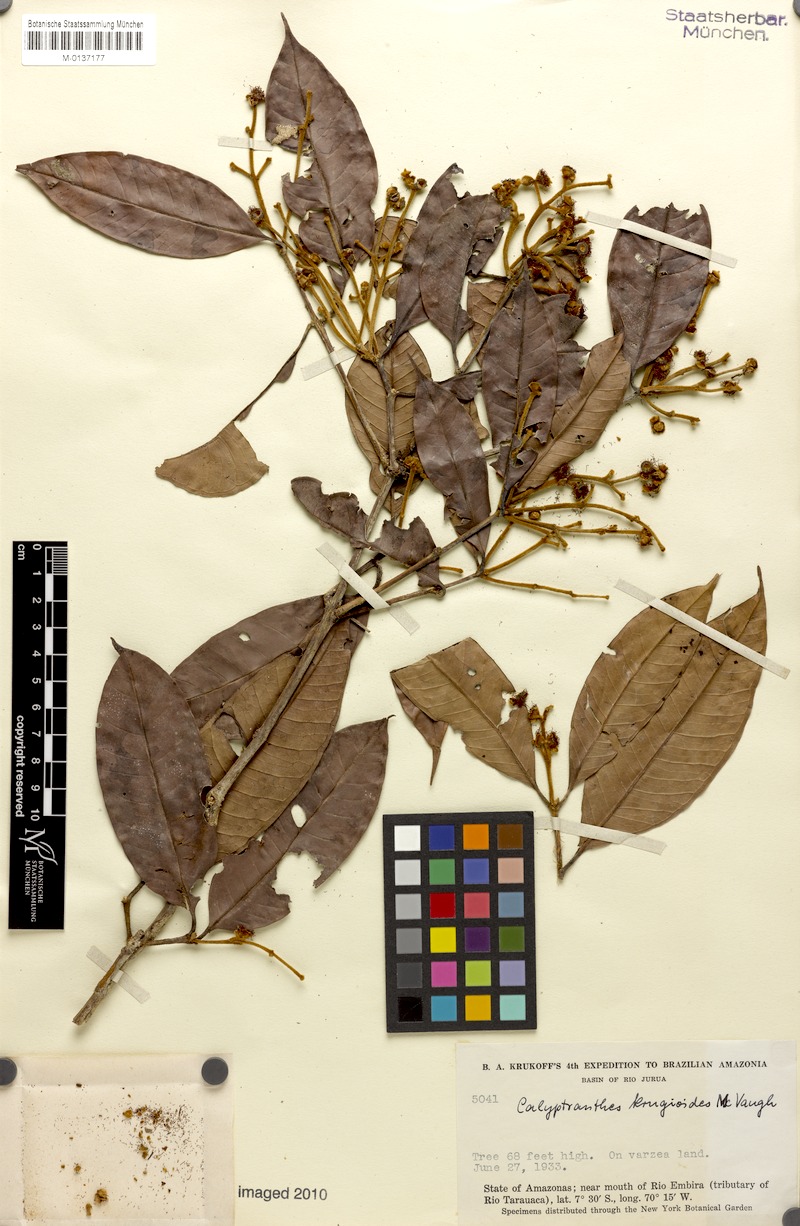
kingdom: Plantae
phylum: Tracheophyta
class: Magnoliopsida
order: Myrtales
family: Myrtaceae
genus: Myrcia
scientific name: Myrcia krugioides
